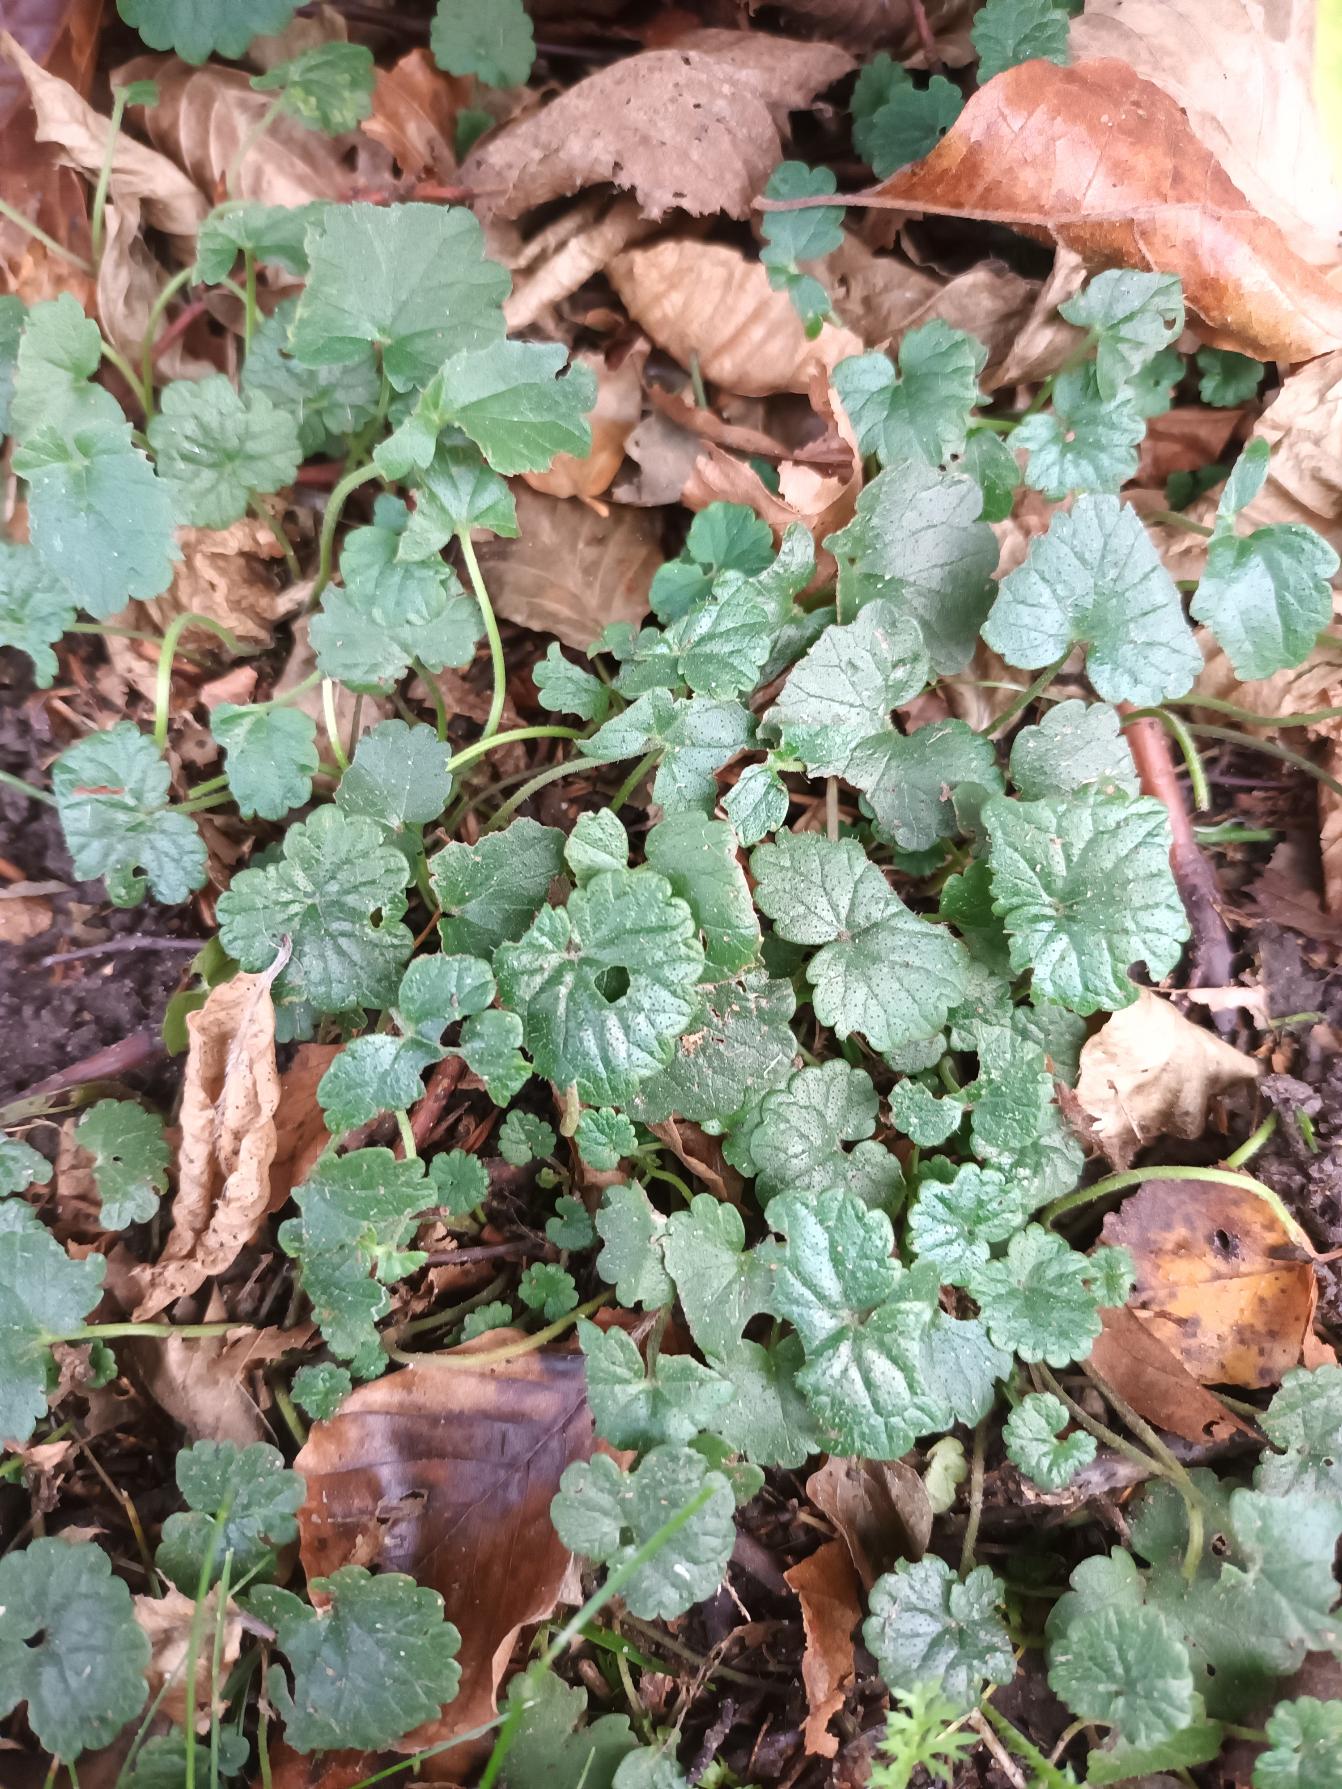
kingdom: Plantae
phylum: Tracheophyta
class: Magnoliopsida
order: Lamiales
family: Lamiaceae
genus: Glechoma
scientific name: Glechoma hederacea
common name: Korsknap
